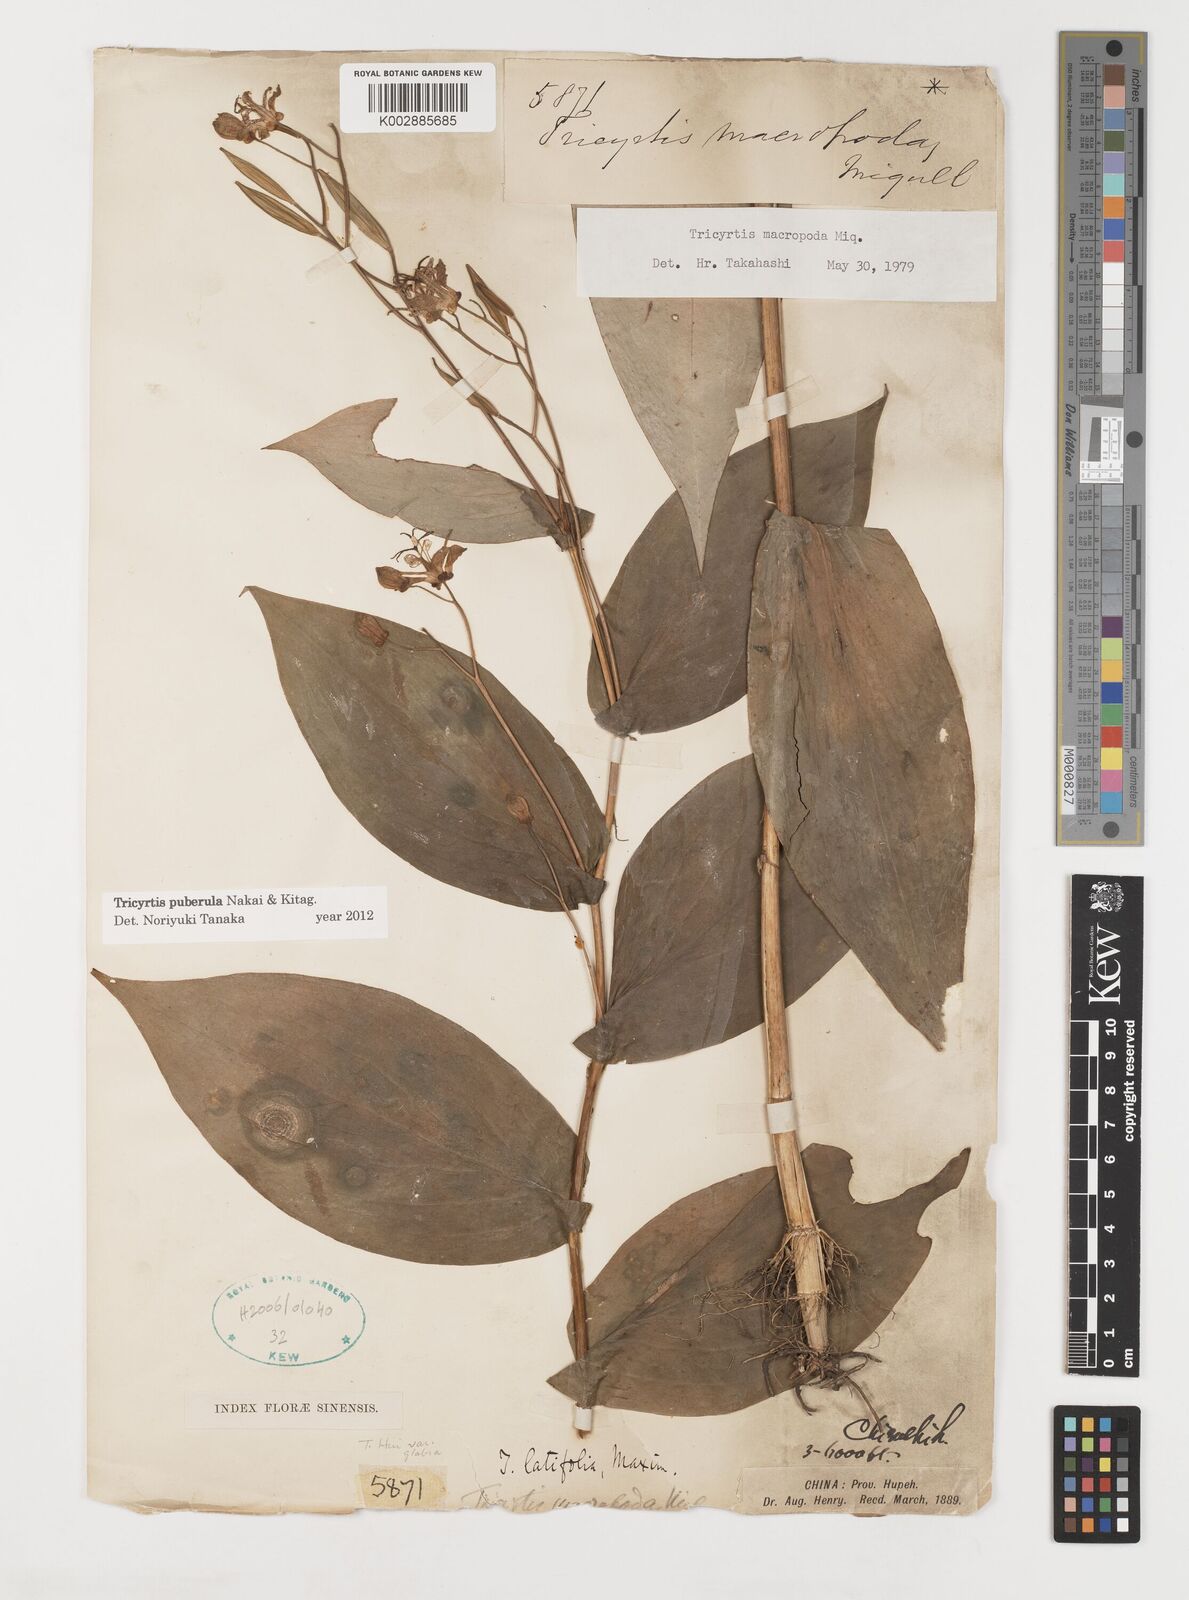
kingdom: Plantae
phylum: Tracheophyta
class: Liliopsida
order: Liliales
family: Liliaceae
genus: Tricyrtis
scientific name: Tricyrtis puberula
